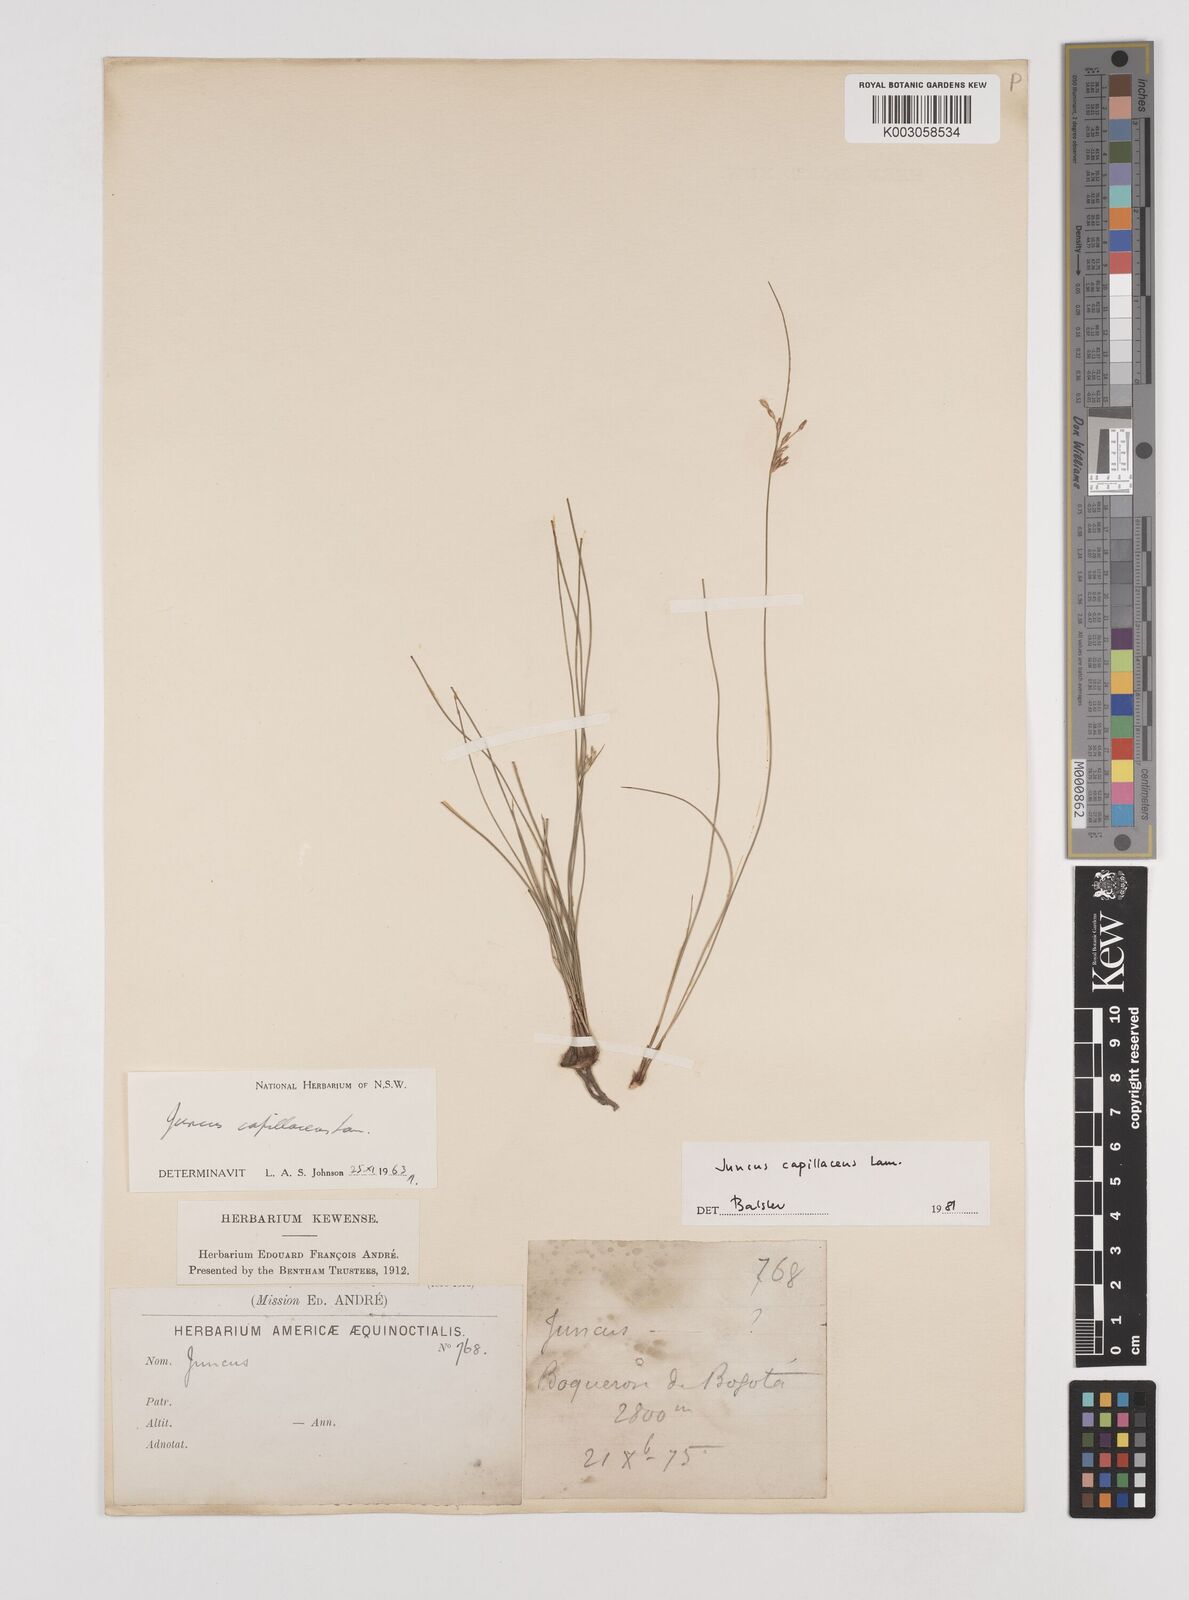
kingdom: Plantae
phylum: Tracheophyta
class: Liliopsida
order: Poales
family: Juncaceae
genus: Juncus
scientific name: Juncus capillaceus
